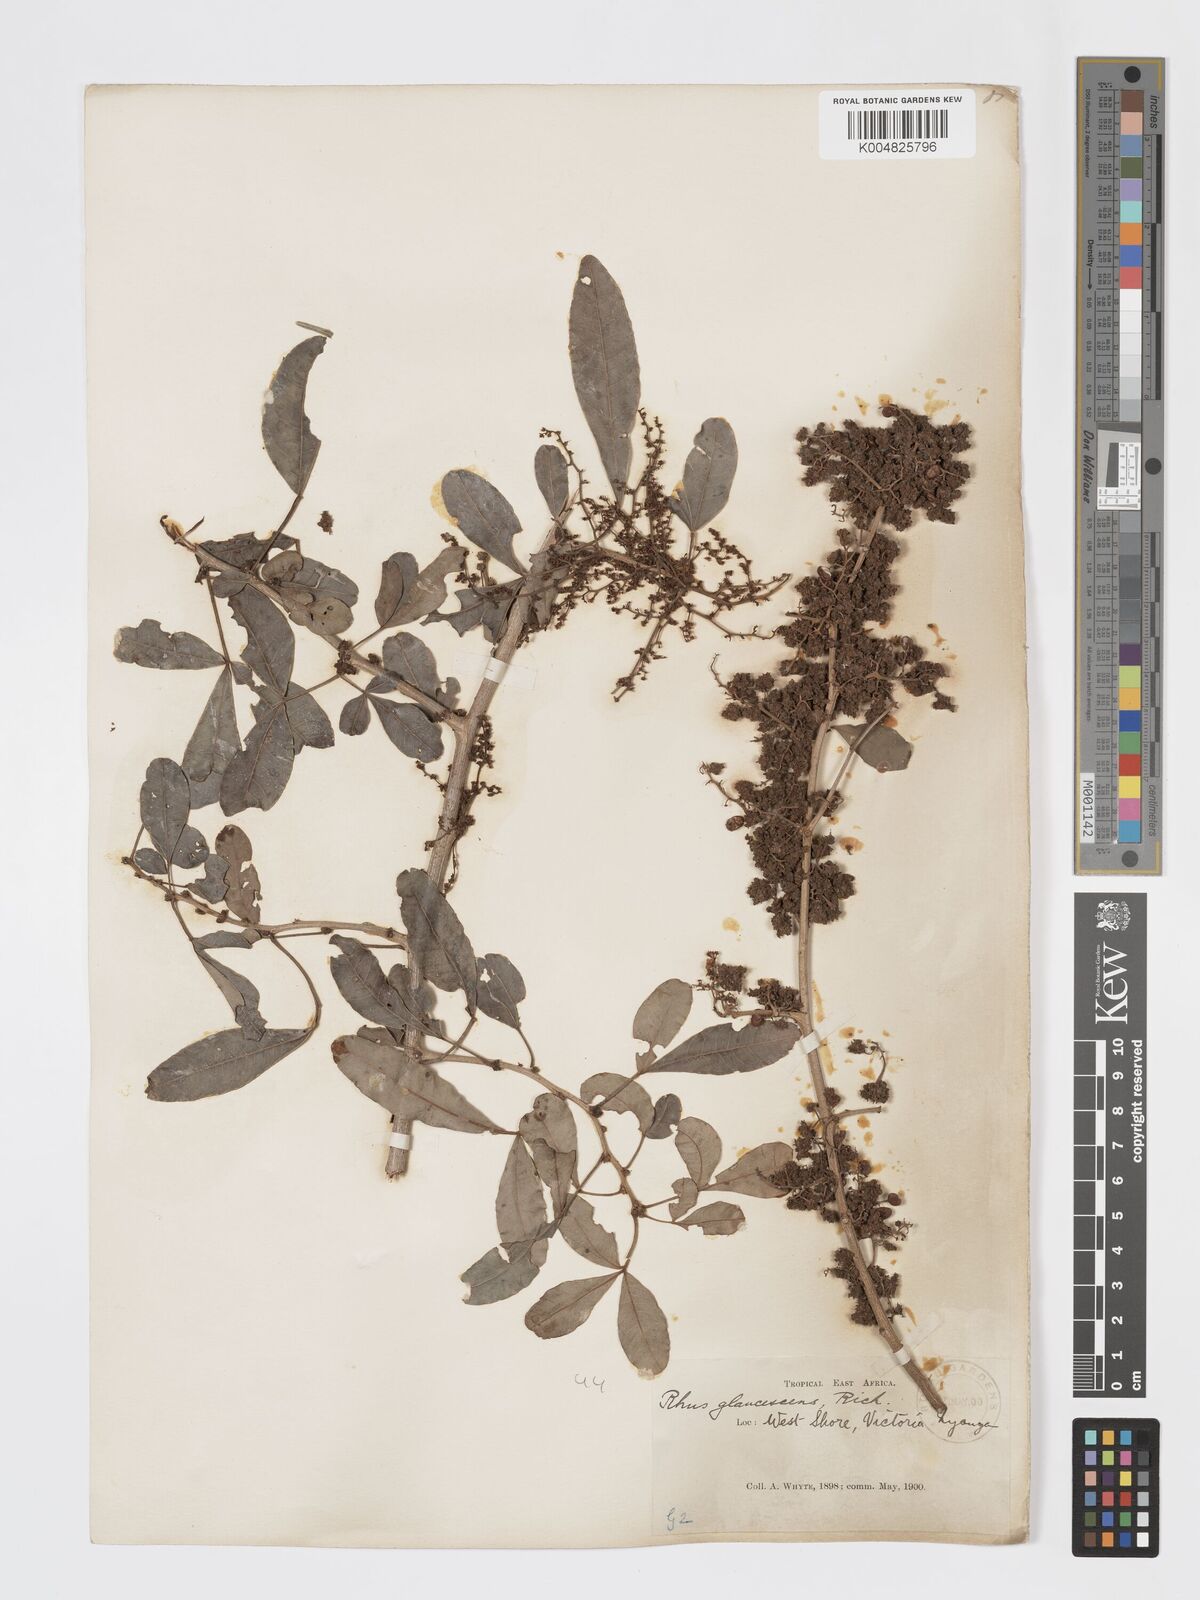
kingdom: Plantae
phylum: Tracheophyta
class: Magnoliopsida
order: Sapindales
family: Anacardiaceae
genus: Searsia
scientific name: Searsia natalensis
